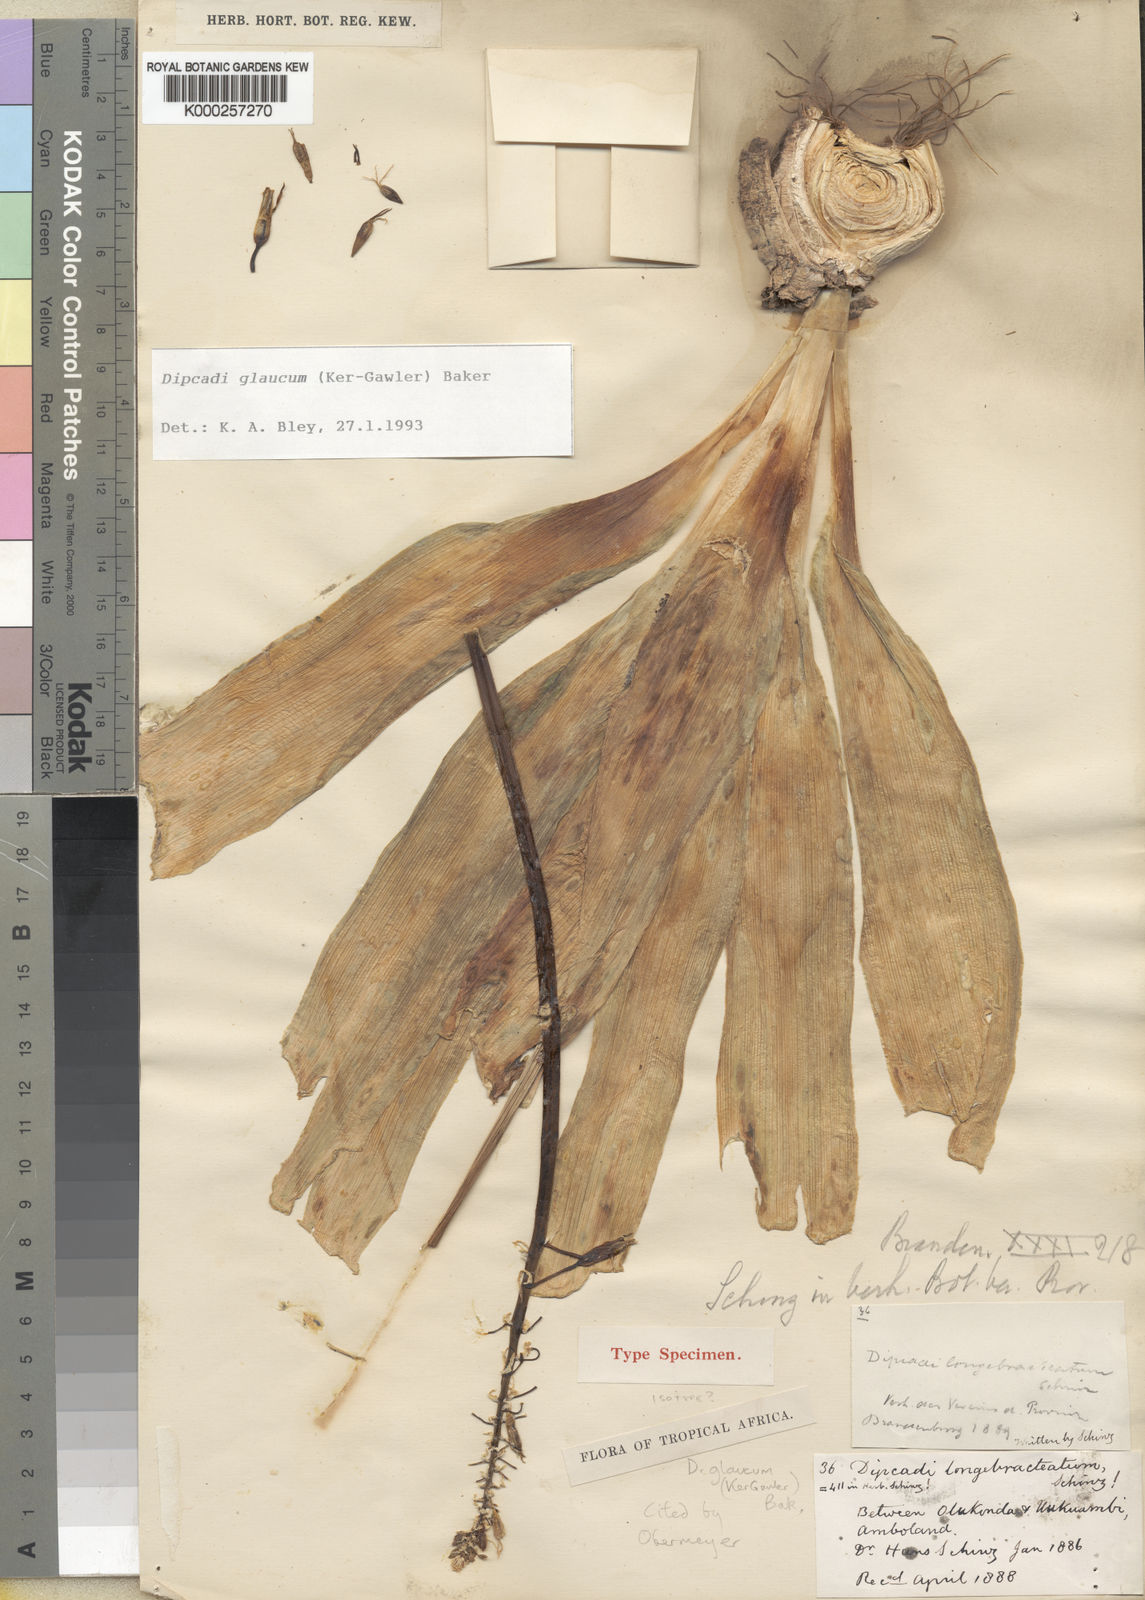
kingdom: Plantae
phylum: Tracheophyta
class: Liliopsida
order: Asparagales
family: Asparagaceae
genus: Dipcadi
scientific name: Dipcadi glaucum
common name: Wild onion
